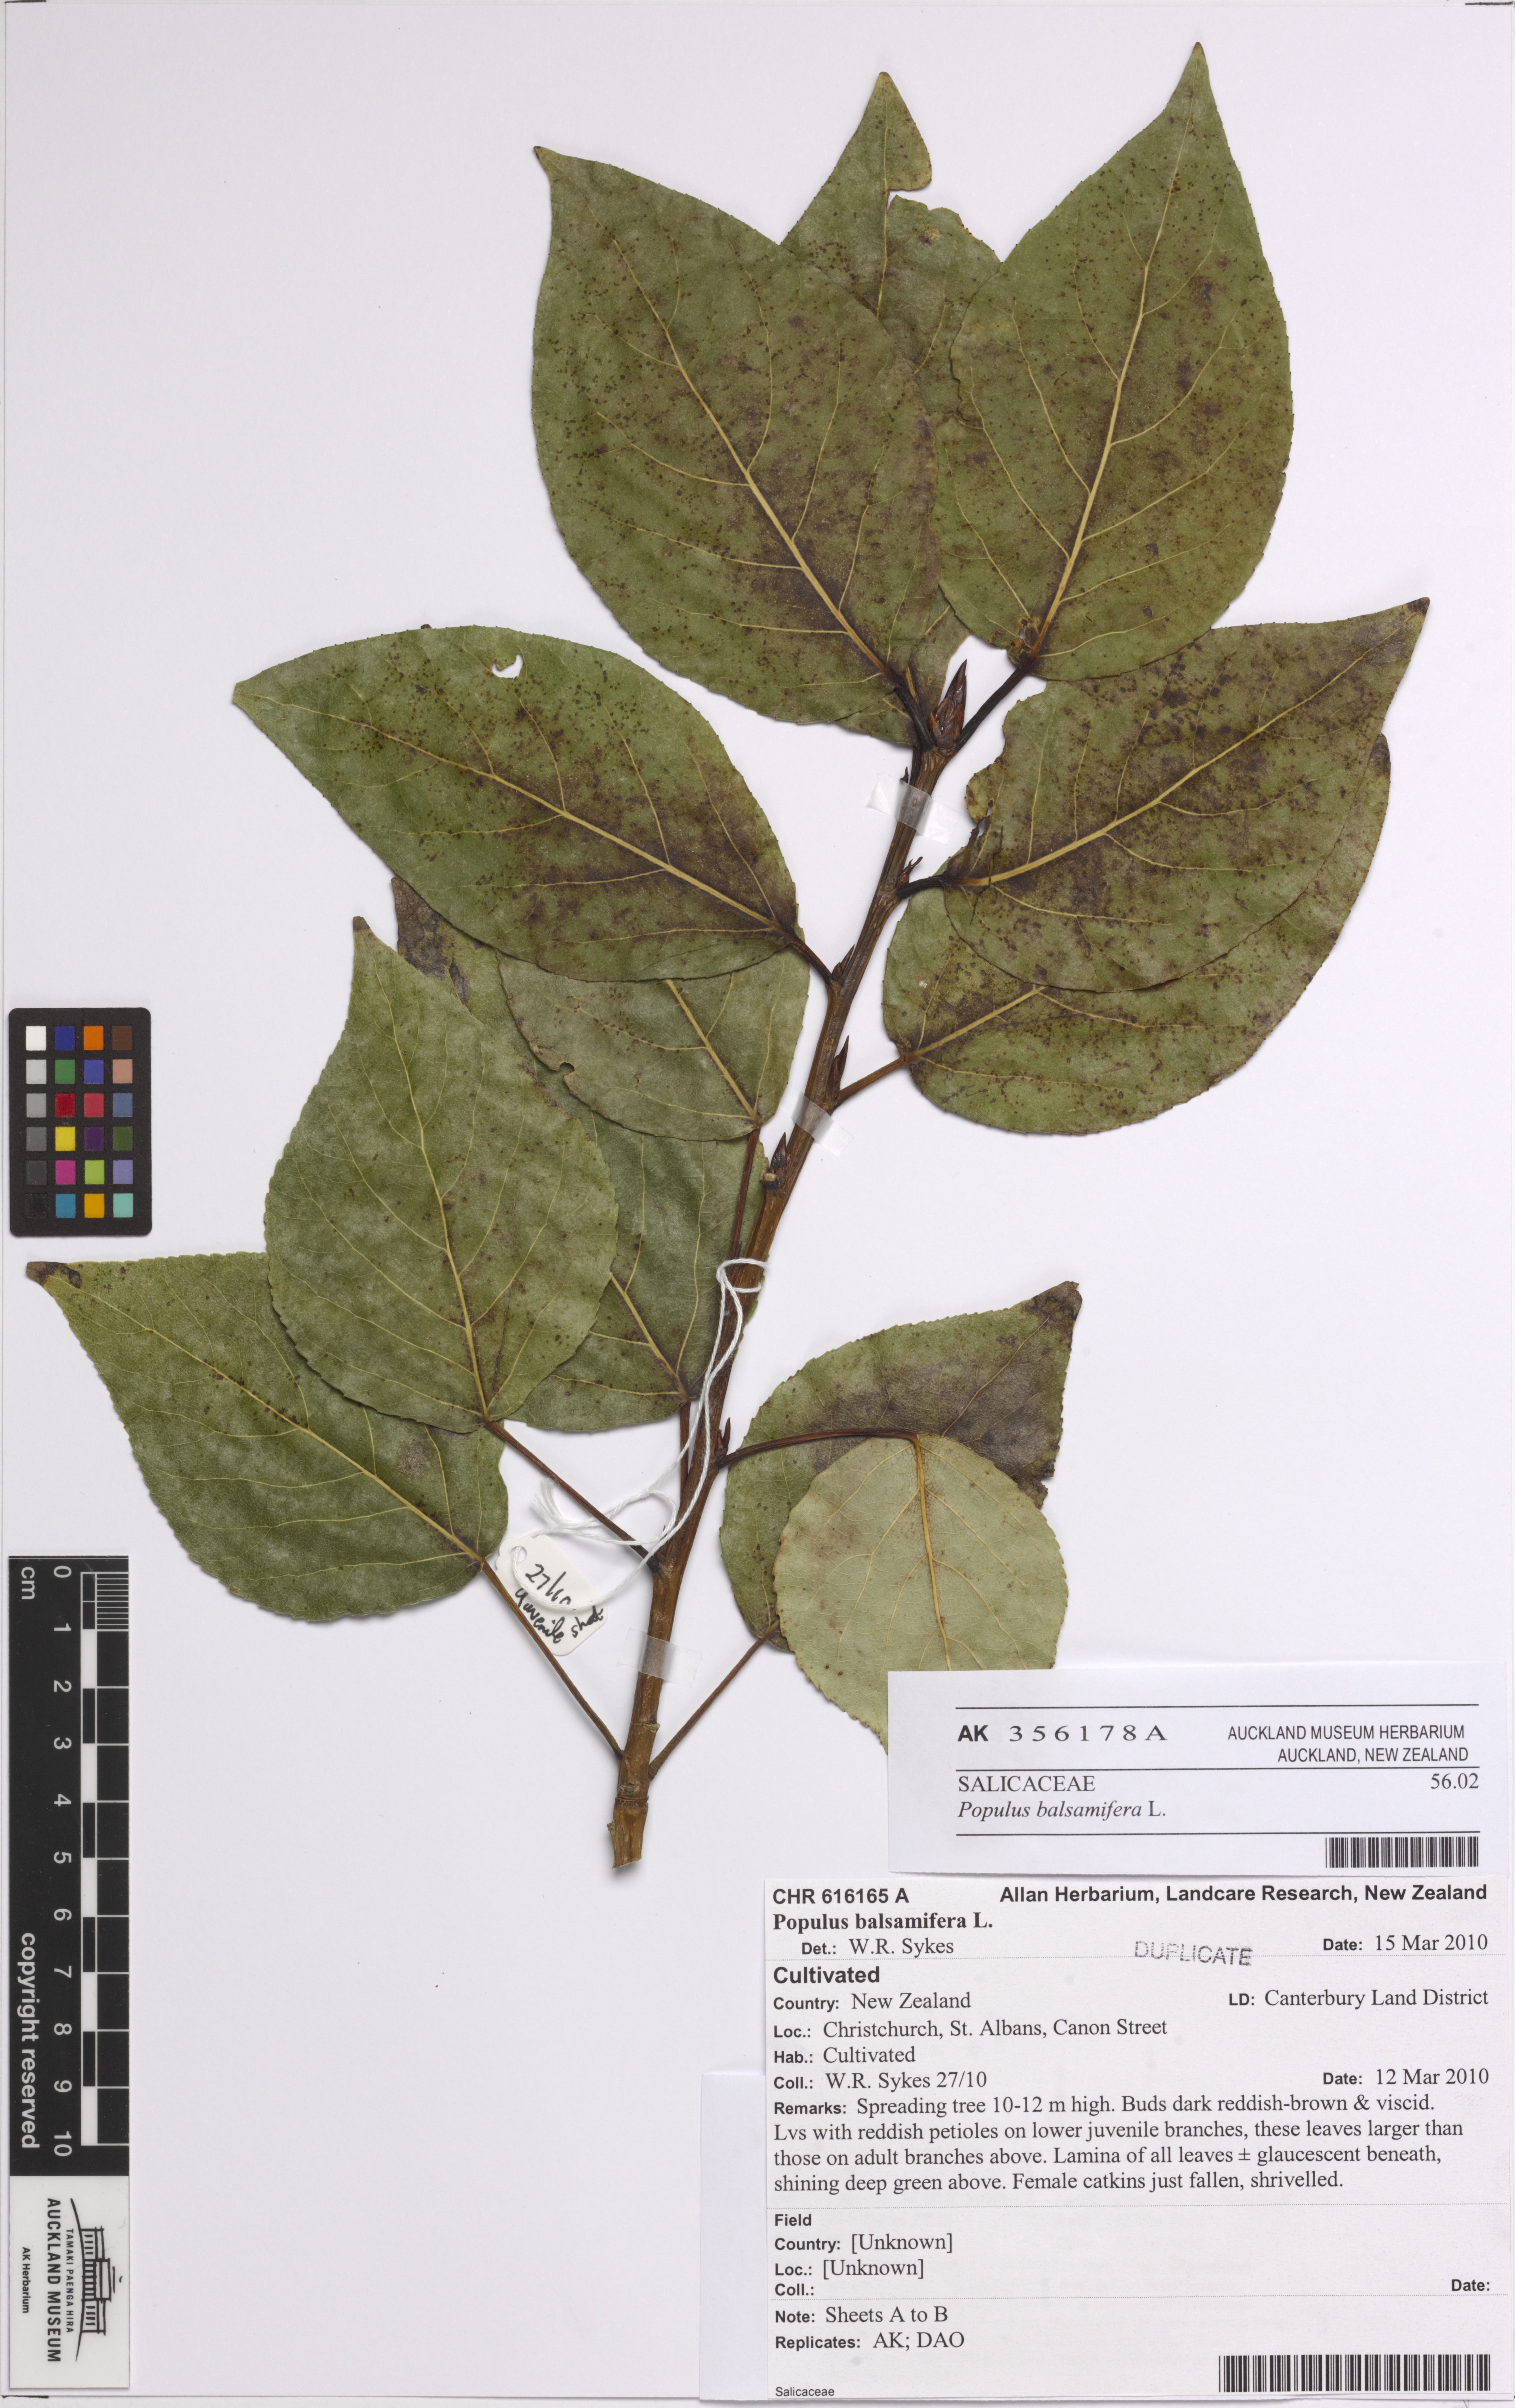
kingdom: Plantae
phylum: Tracheophyta
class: Magnoliopsida
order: Malpighiales
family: Salicaceae
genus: Populus
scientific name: Populus balsamifera
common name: Balsam poplar
